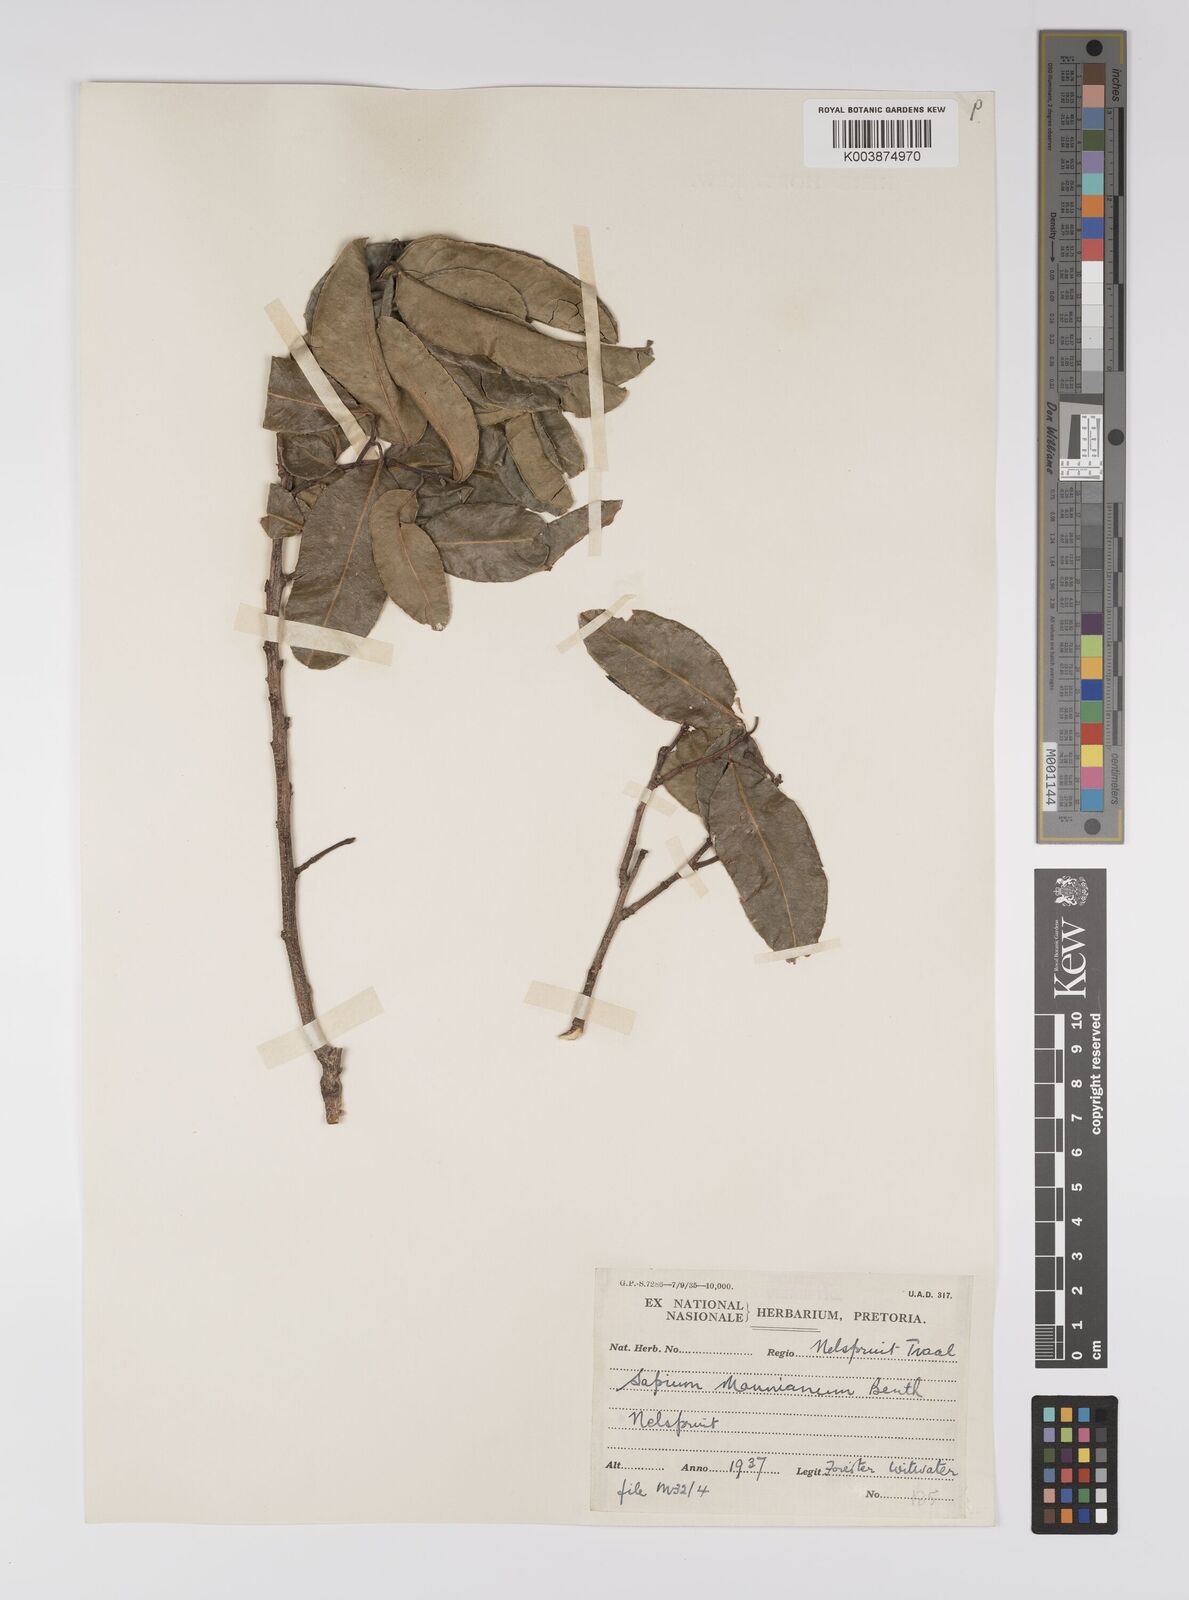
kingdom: Plantae
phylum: Tracheophyta
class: Magnoliopsida
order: Malpighiales
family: Euphorbiaceae
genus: Shirakiopsis
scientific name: Shirakiopsis elliptica
